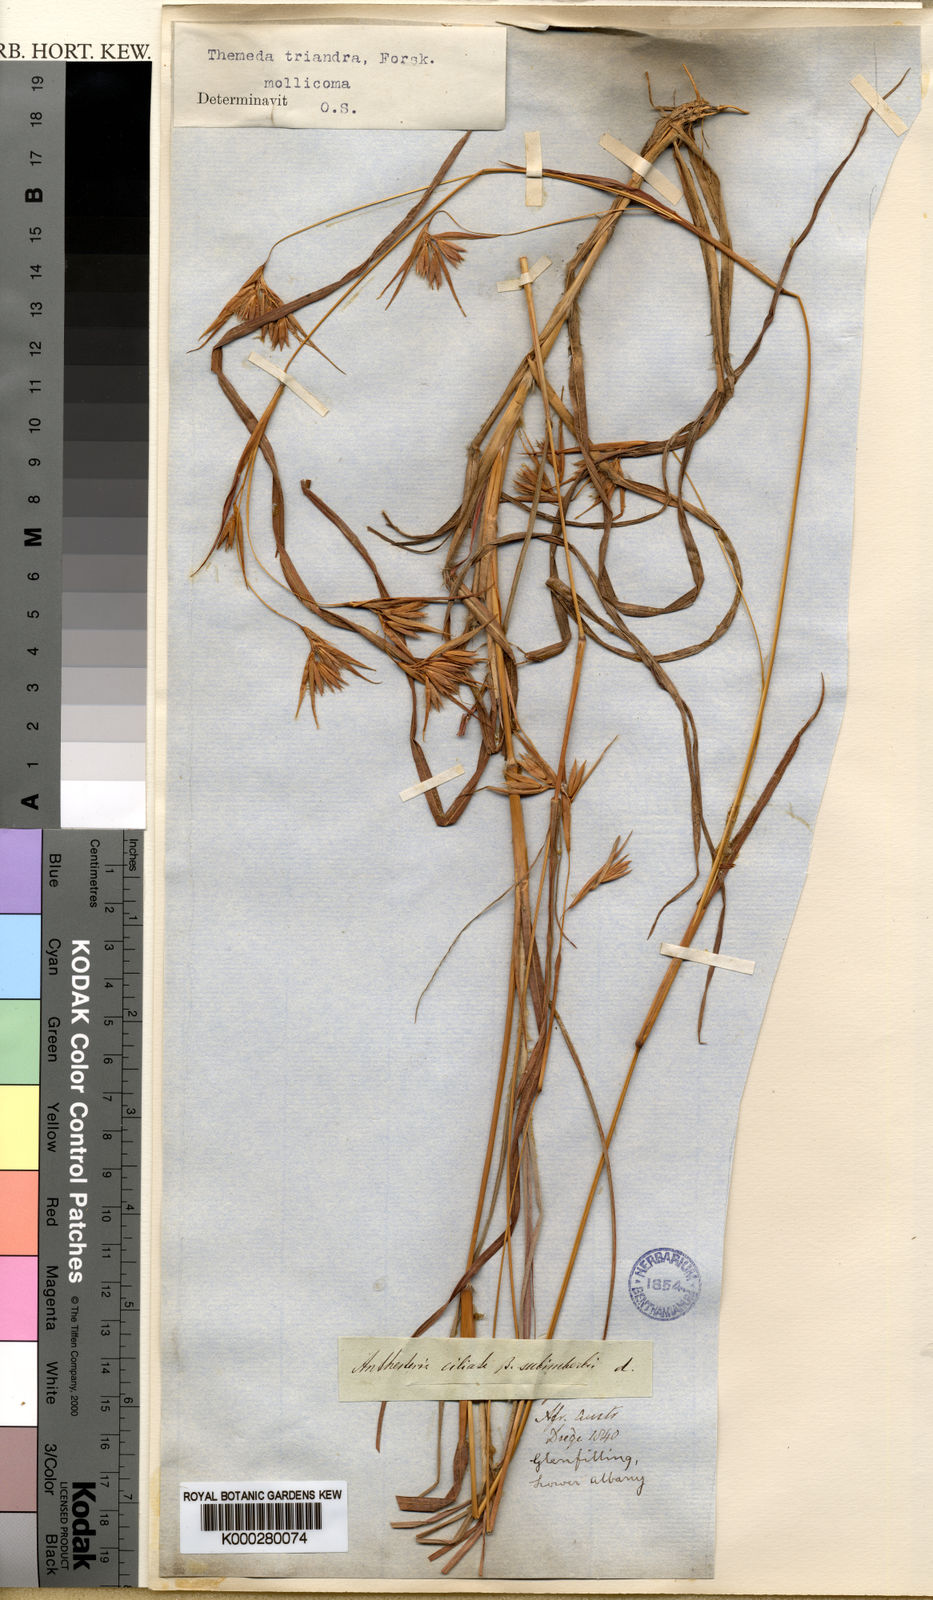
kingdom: Plantae
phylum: Tracheophyta
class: Liliopsida
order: Poales
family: Poaceae
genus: Themeda
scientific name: Themeda triandra
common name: Kangaroo grass
